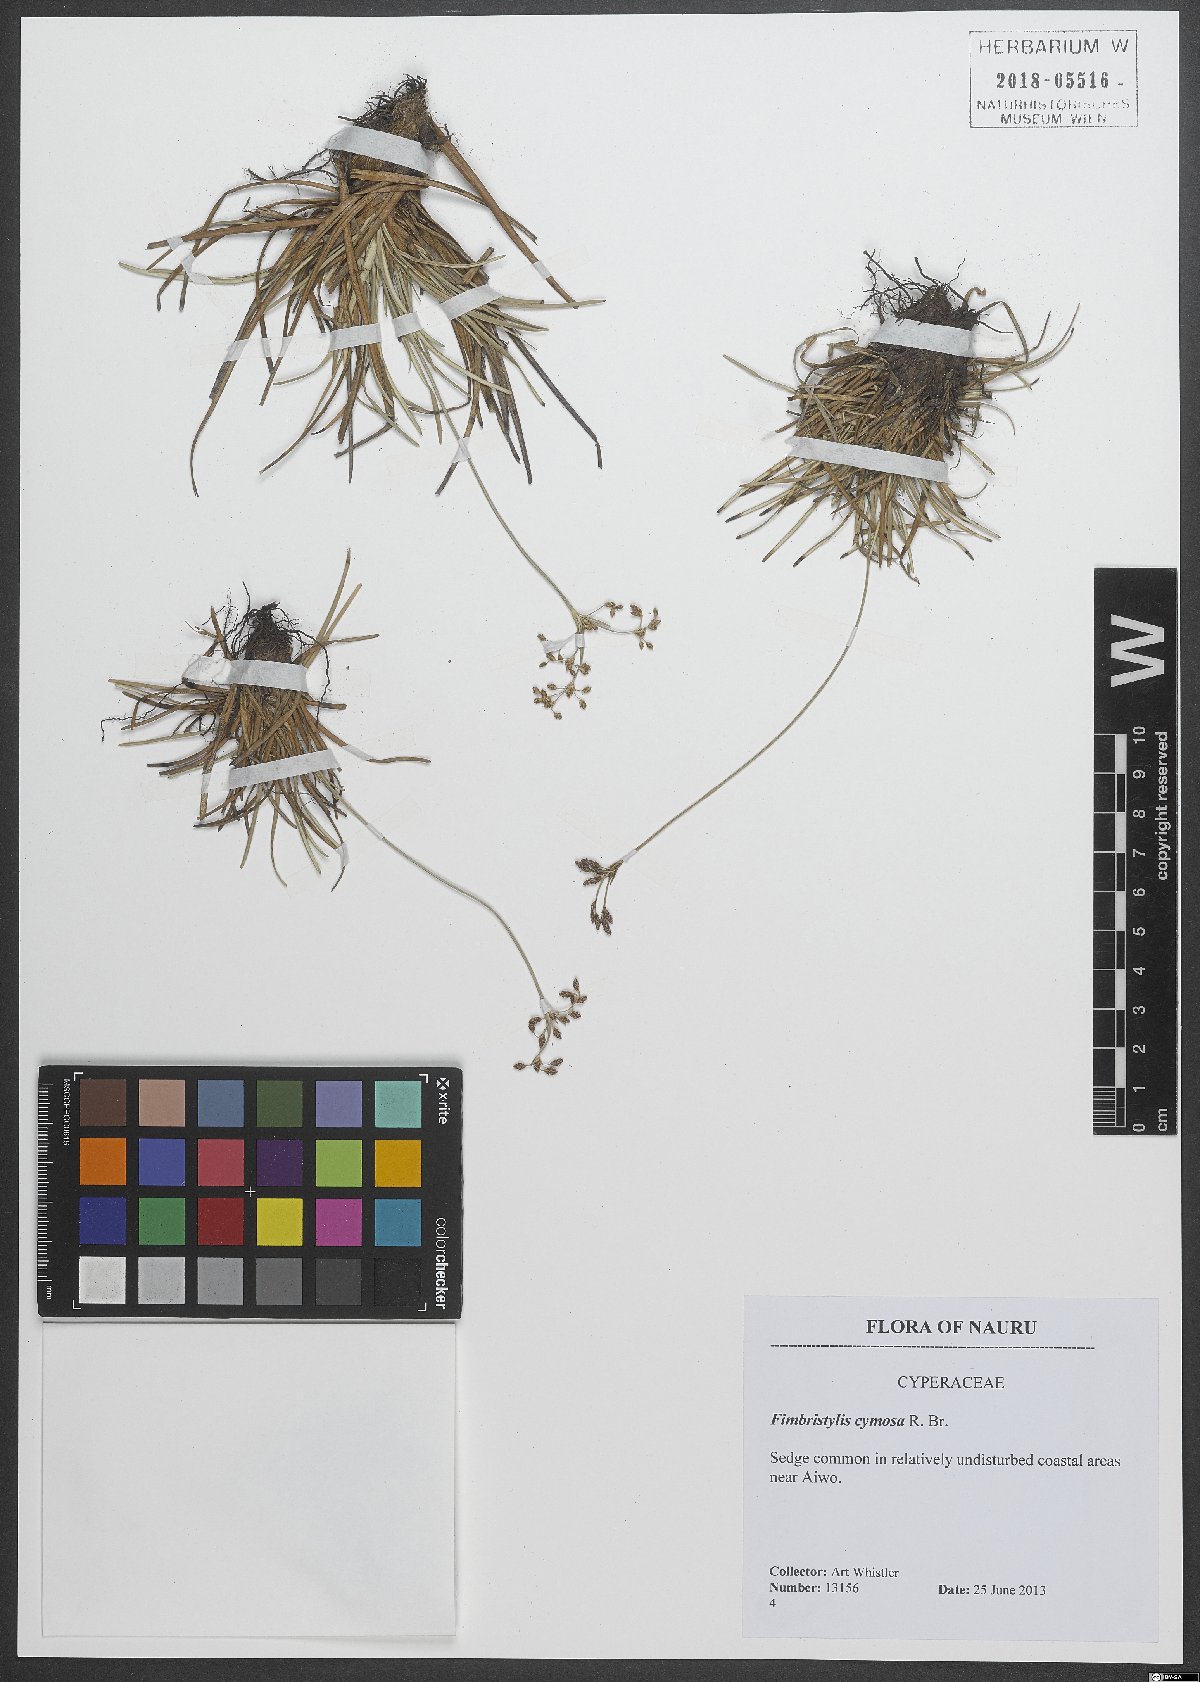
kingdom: Plantae
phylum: Tracheophyta
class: Liliopsida
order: Poales
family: Cyperaceae
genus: Fimbristylis
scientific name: Fimbristylis cymosa
